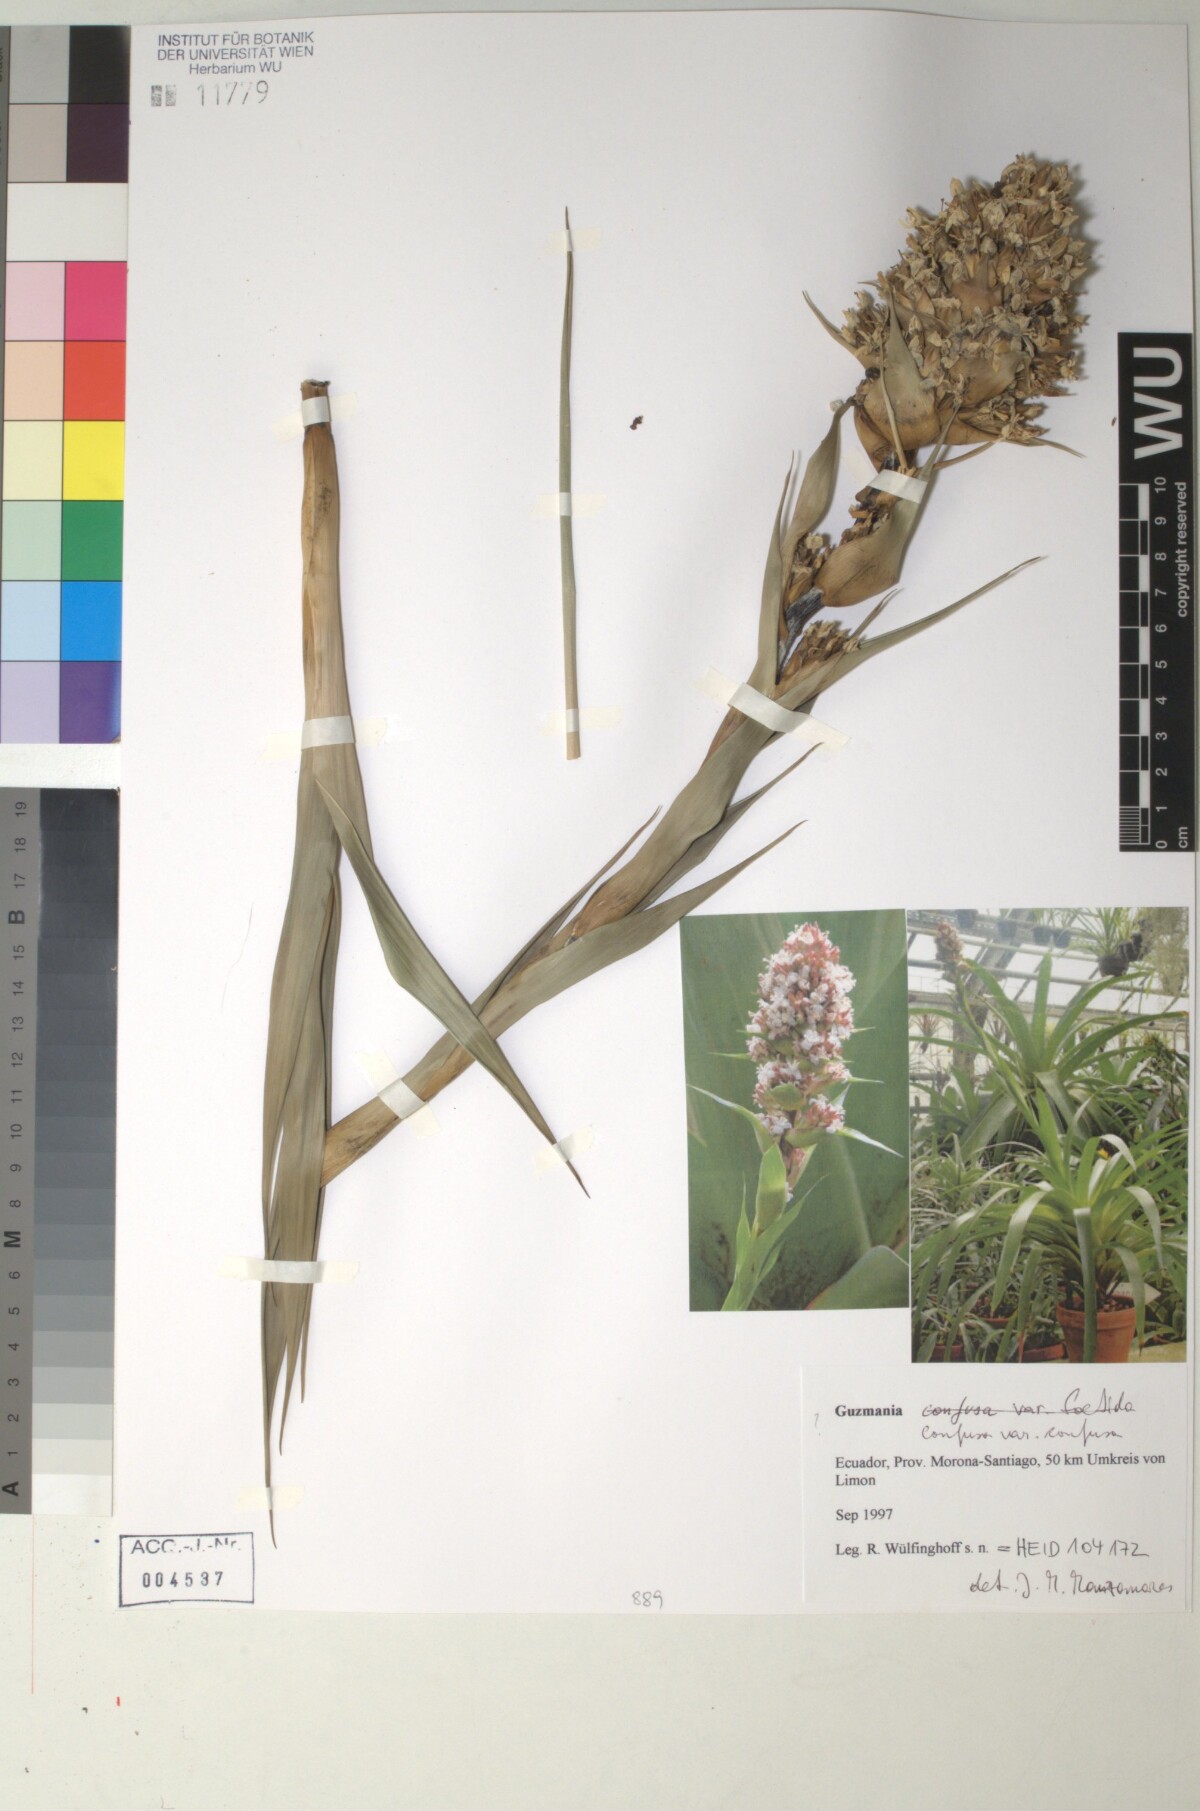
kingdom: Plantae
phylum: Tracheophyta
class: Liliopsida
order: Poales
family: Bromeliaceae
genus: Guzmania
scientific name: Guzmania confusa
